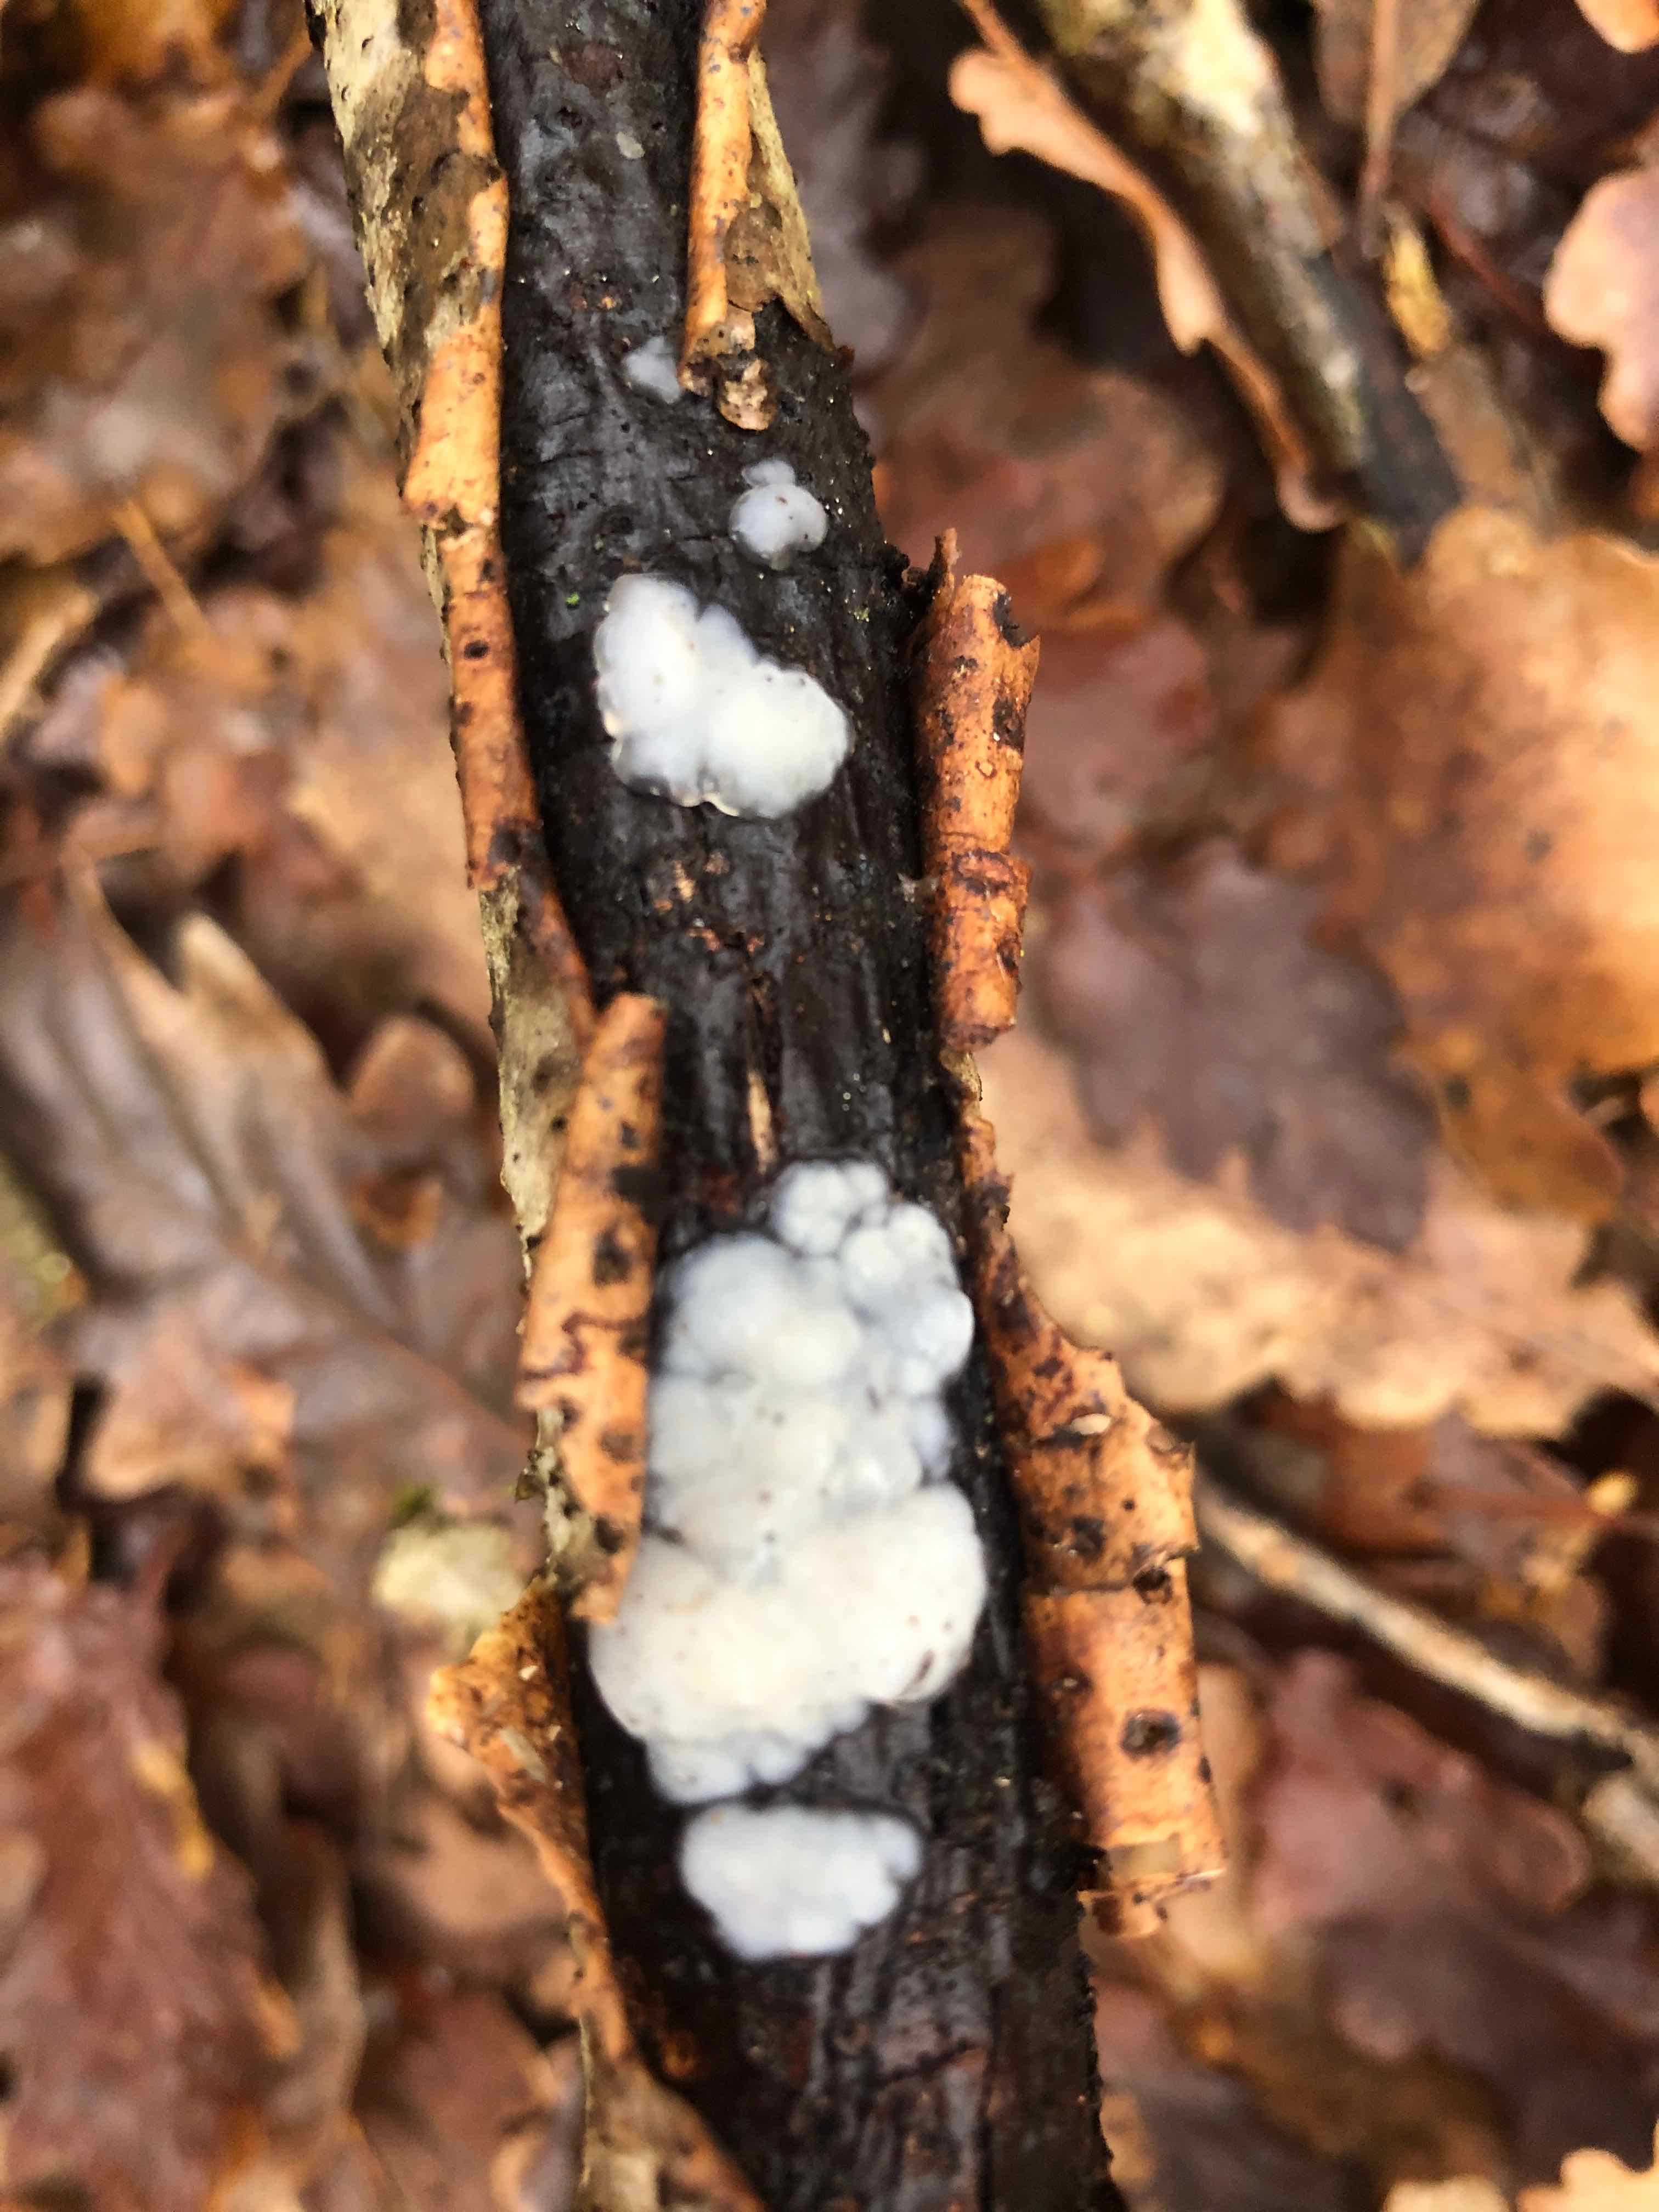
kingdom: Fungi
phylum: Basidiomycota
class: Agaricomycetes
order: Auriculariales
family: Auriculariaceae
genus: Exidia
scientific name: Exidia thuretiana
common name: hvidlig bævretop
